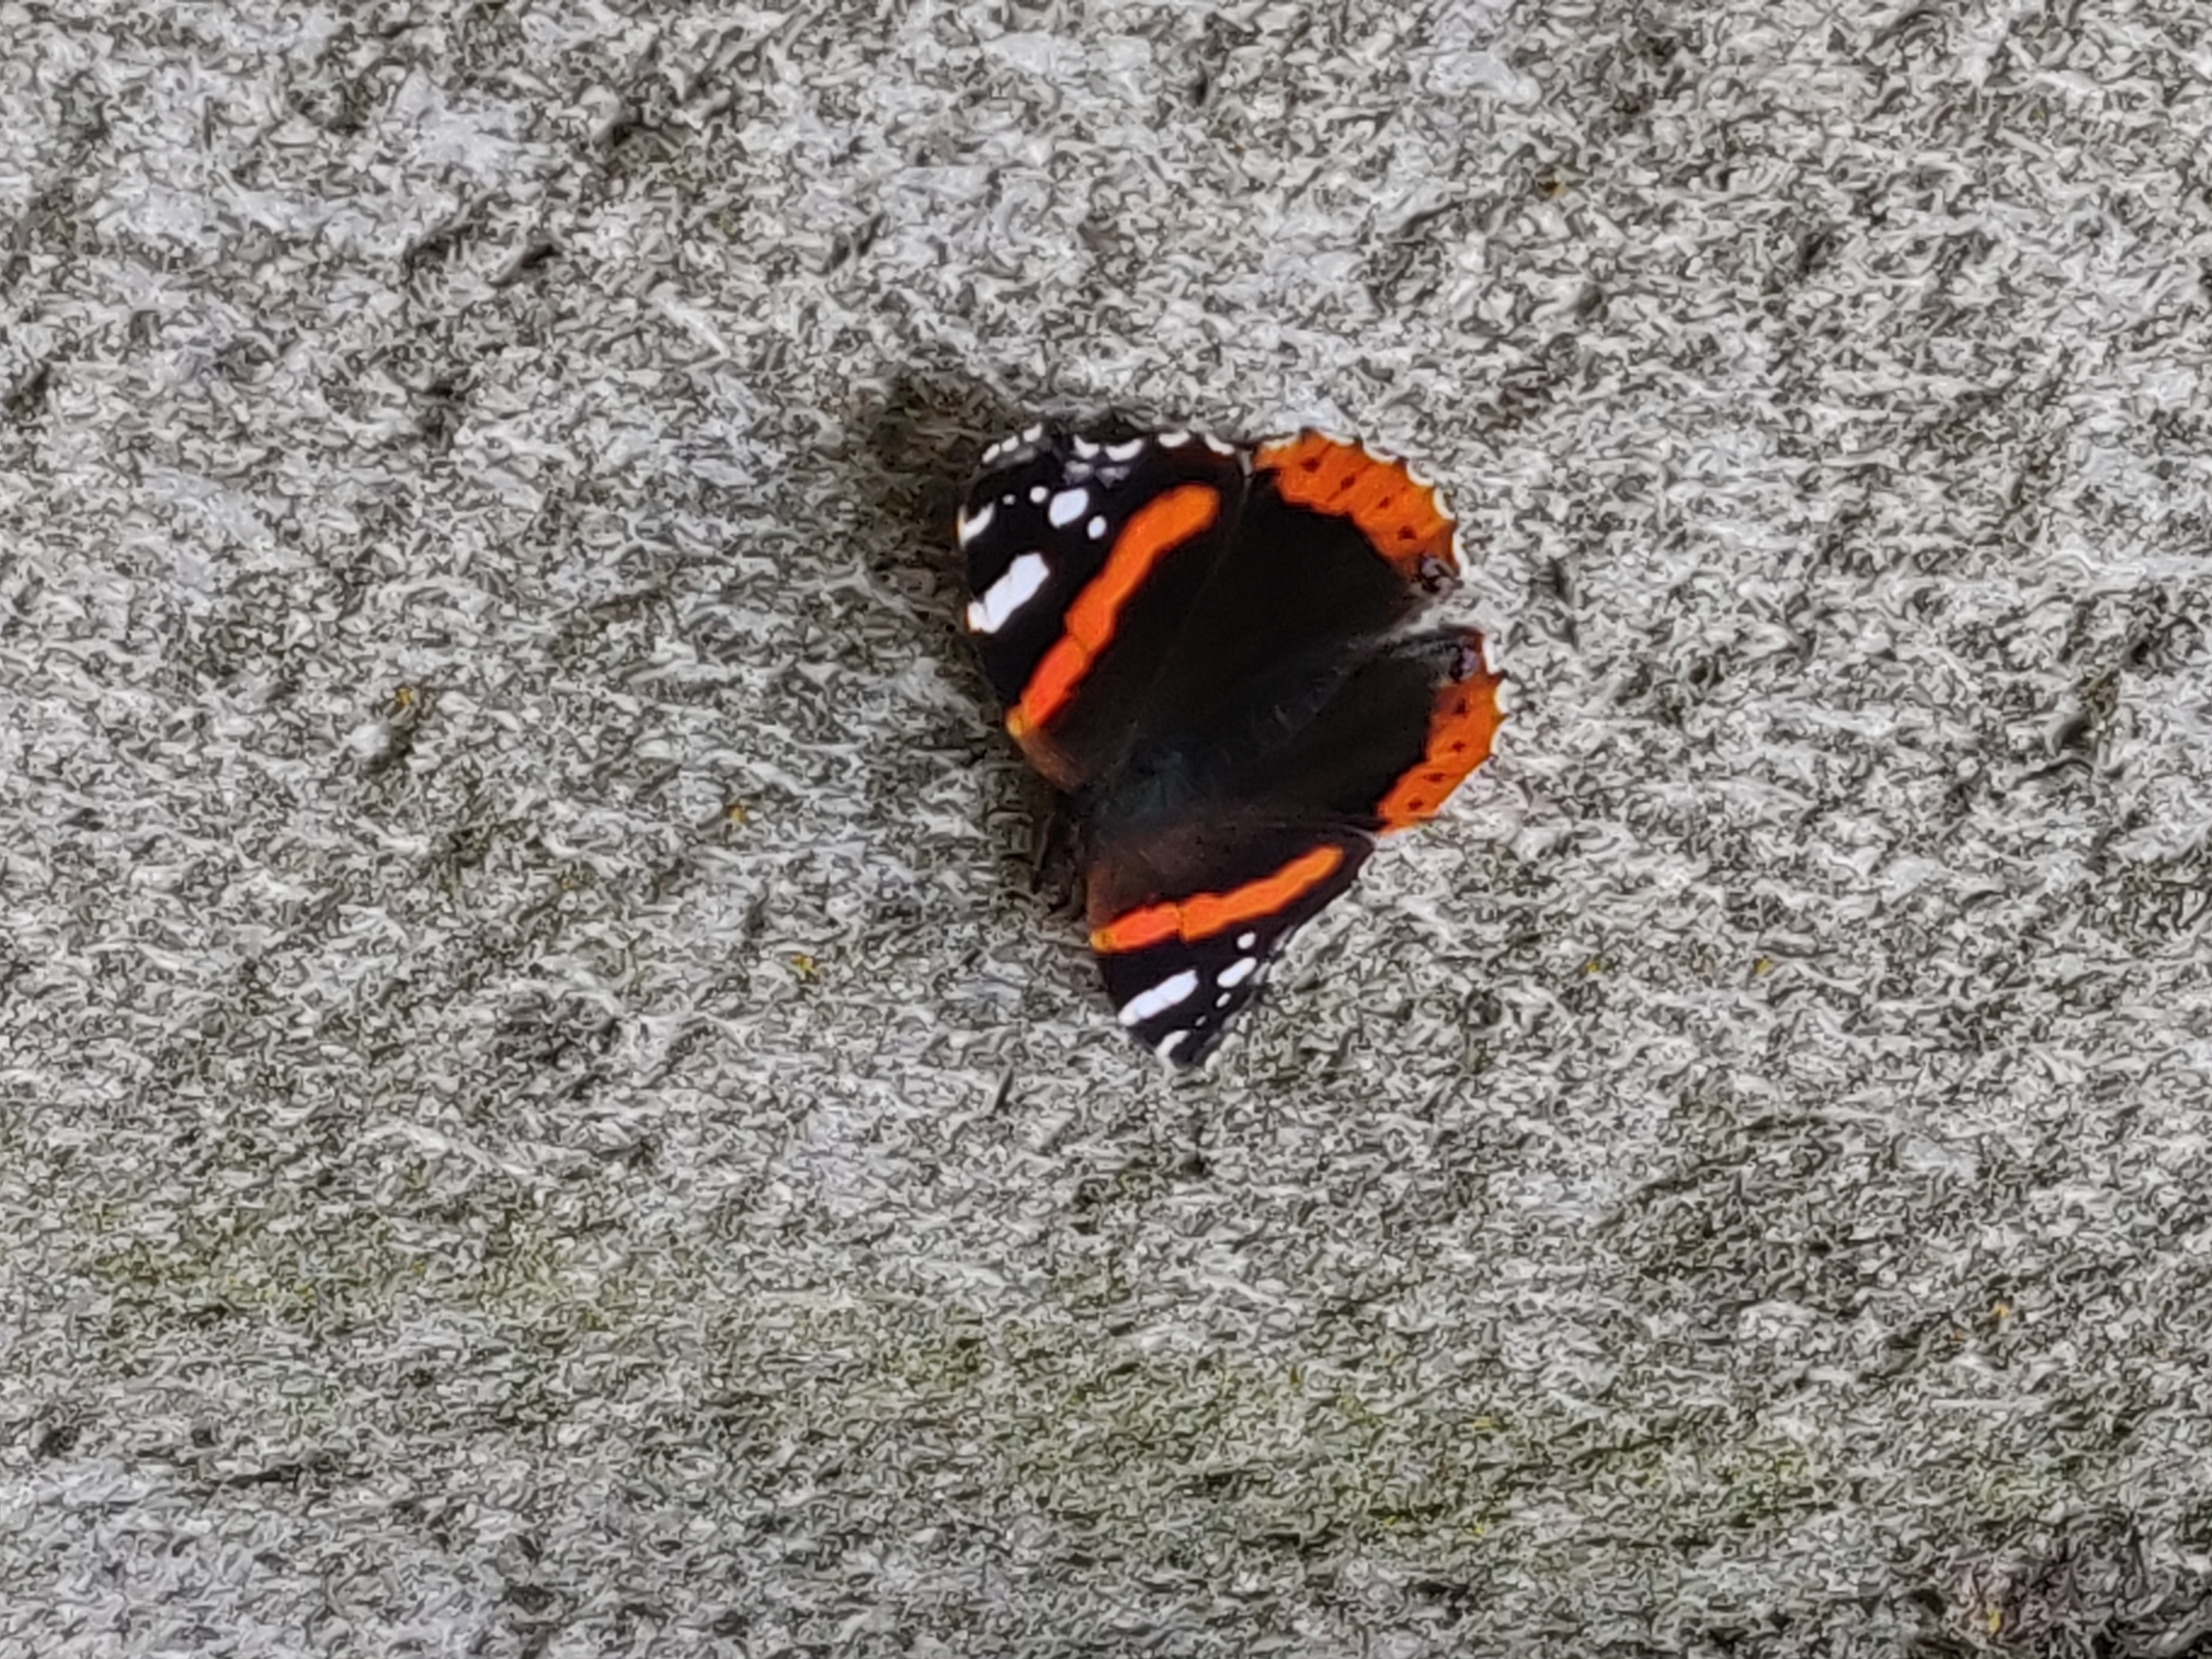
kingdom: Animalia
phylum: Arthropoda
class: Insecta
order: Lepidoptera
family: Nymphalidae
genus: Vanessa
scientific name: Vanessa atalanta
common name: Admiral
